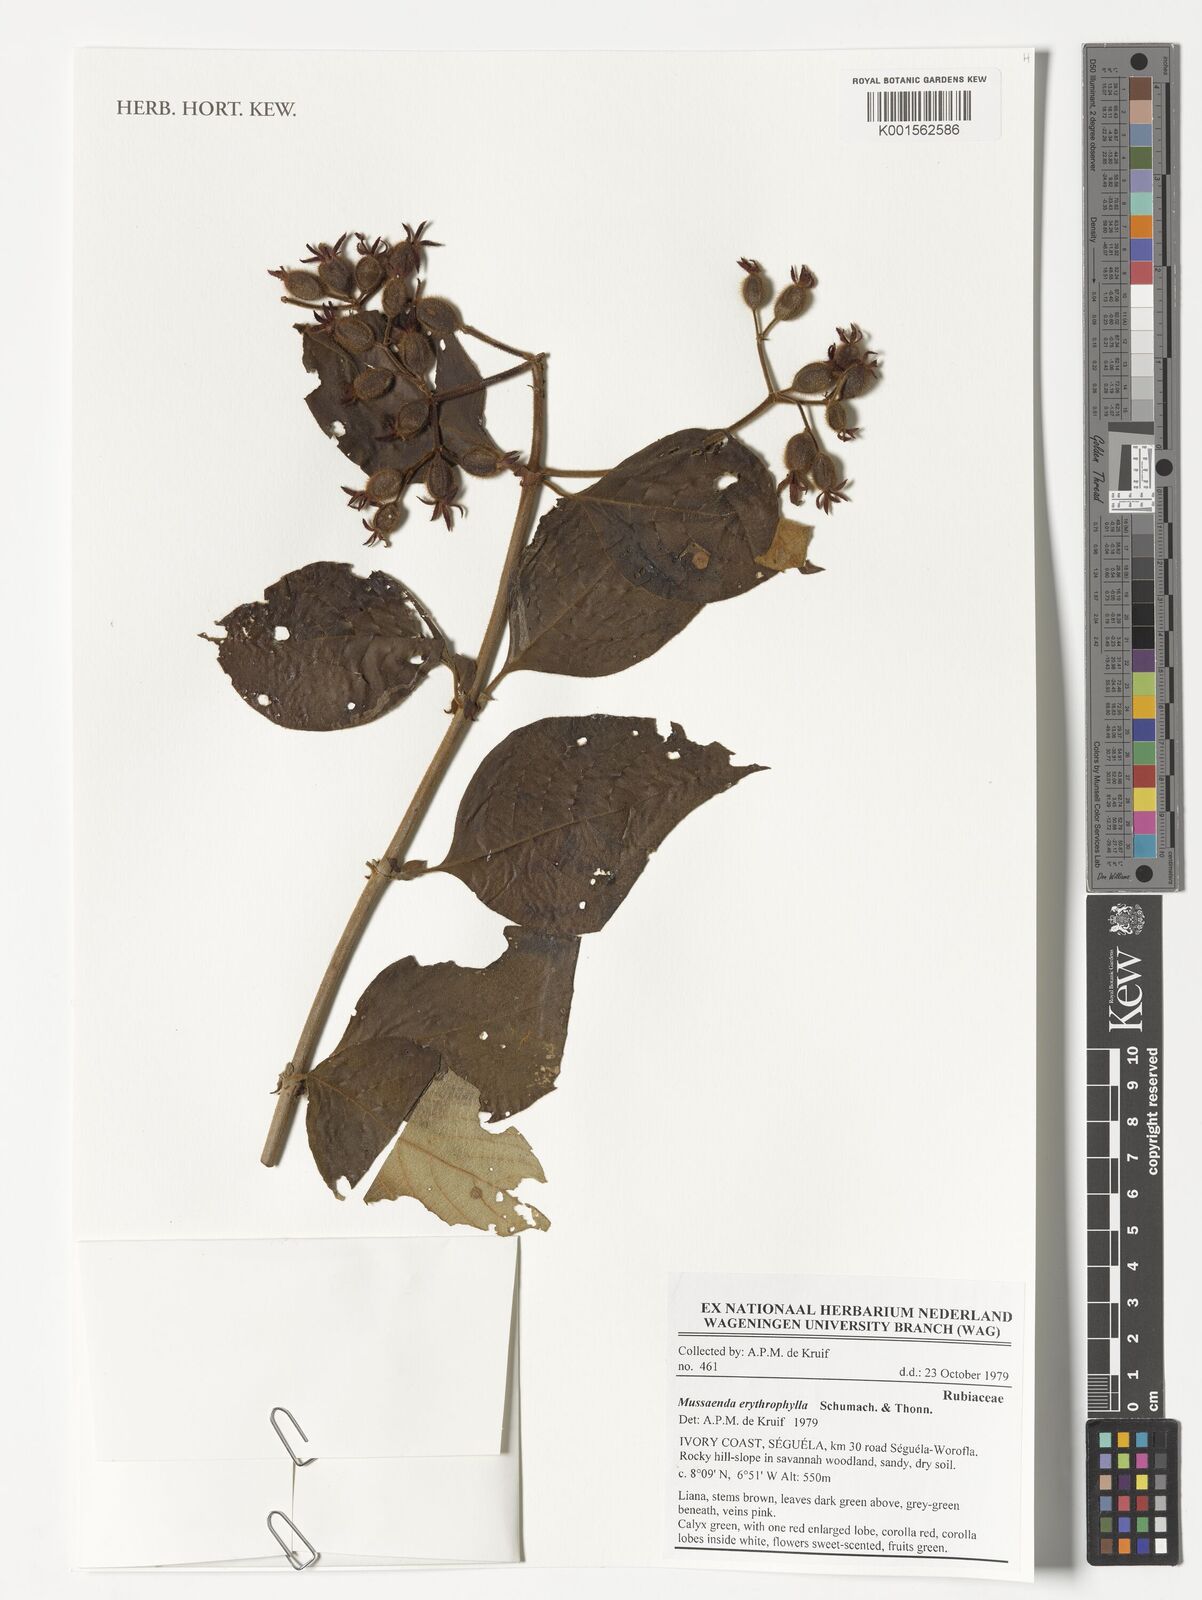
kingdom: Plantae
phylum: Tracheophyta
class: Magnoliopsida
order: Gentianales
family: Rubiaceae
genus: Mussaenda
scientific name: Mussaenda erythrophylla
